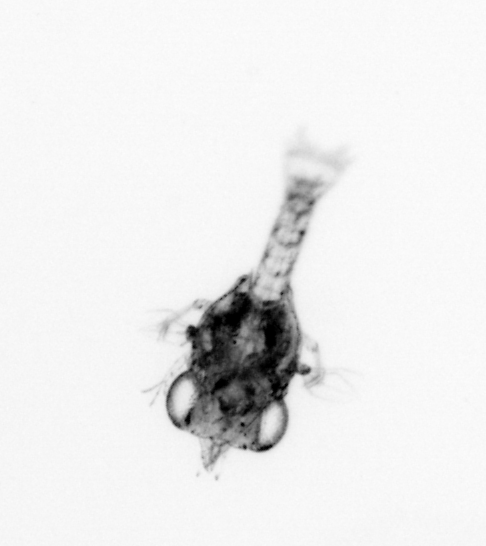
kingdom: Animalia
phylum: Arthropoda
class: Malacostraca
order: Decapoda
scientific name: Decapoda
